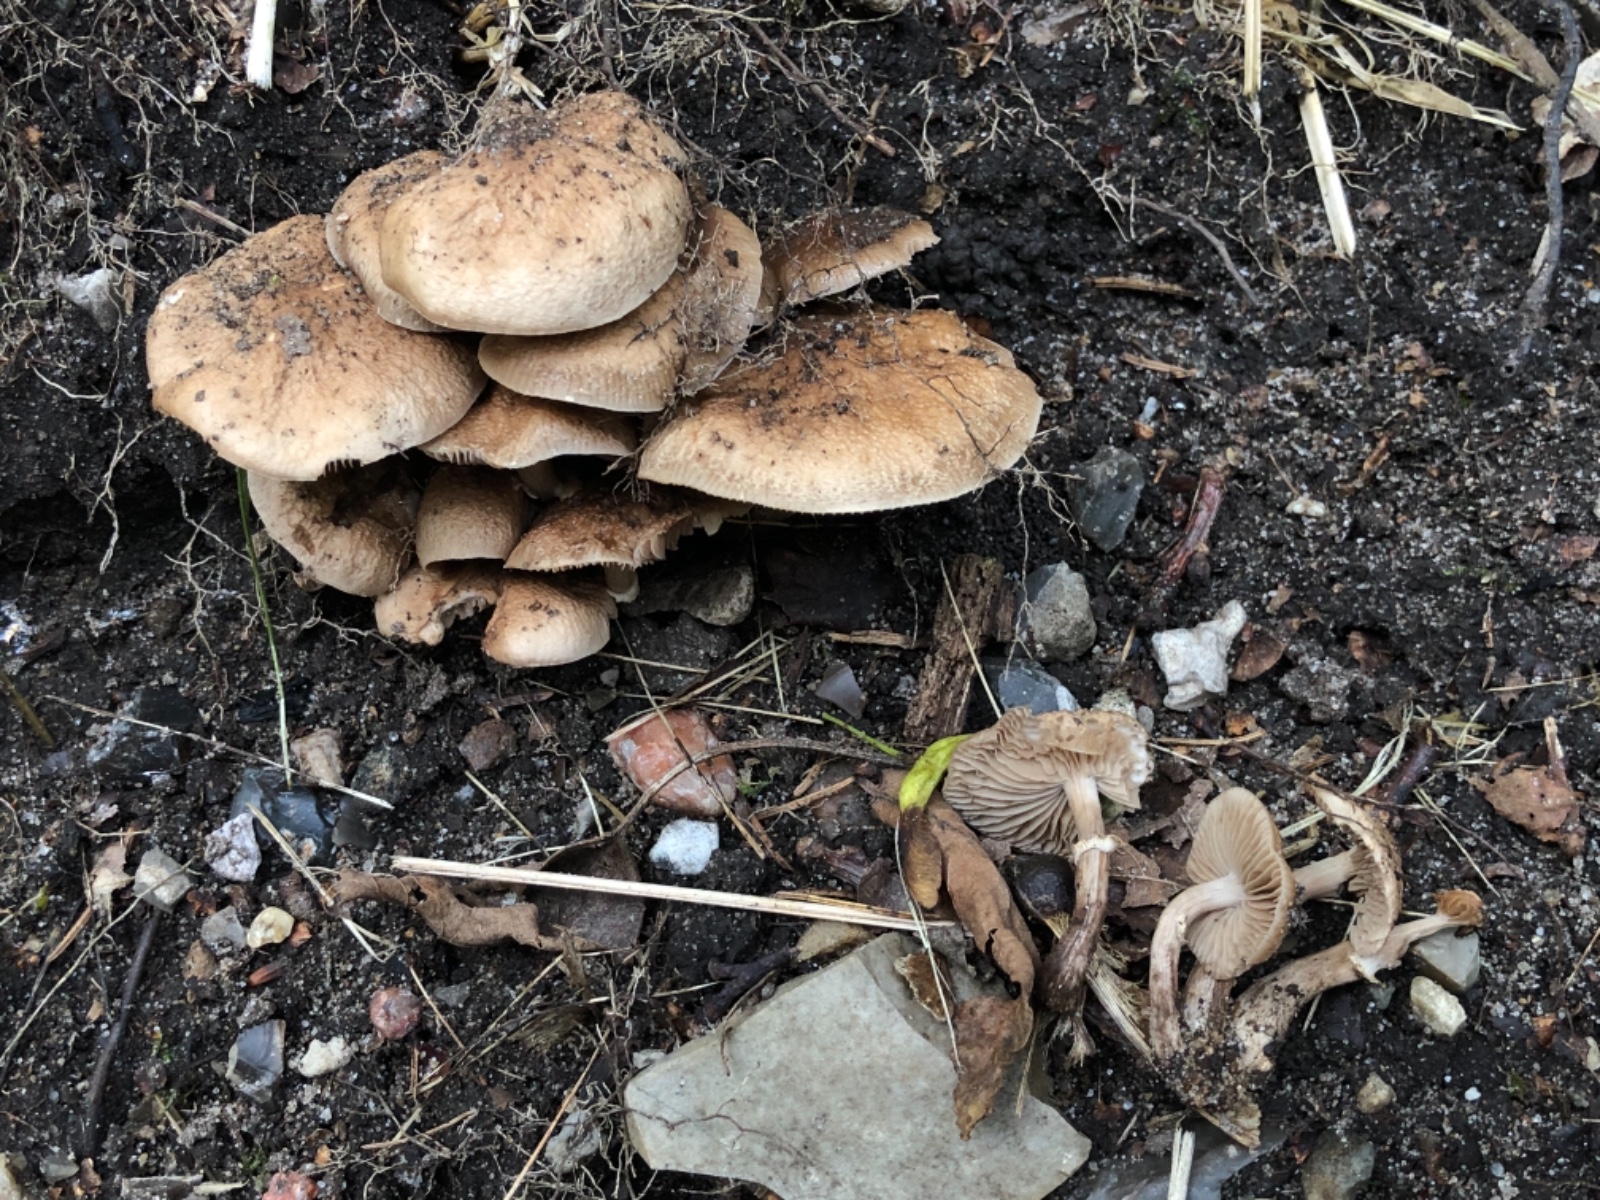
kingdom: Fungi
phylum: Basidiomycota
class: Agaricomycetes
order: Agaricales
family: Tubariaceae
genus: Cyclocybe
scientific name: Cyclocybe erebia
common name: mørk agerhat
